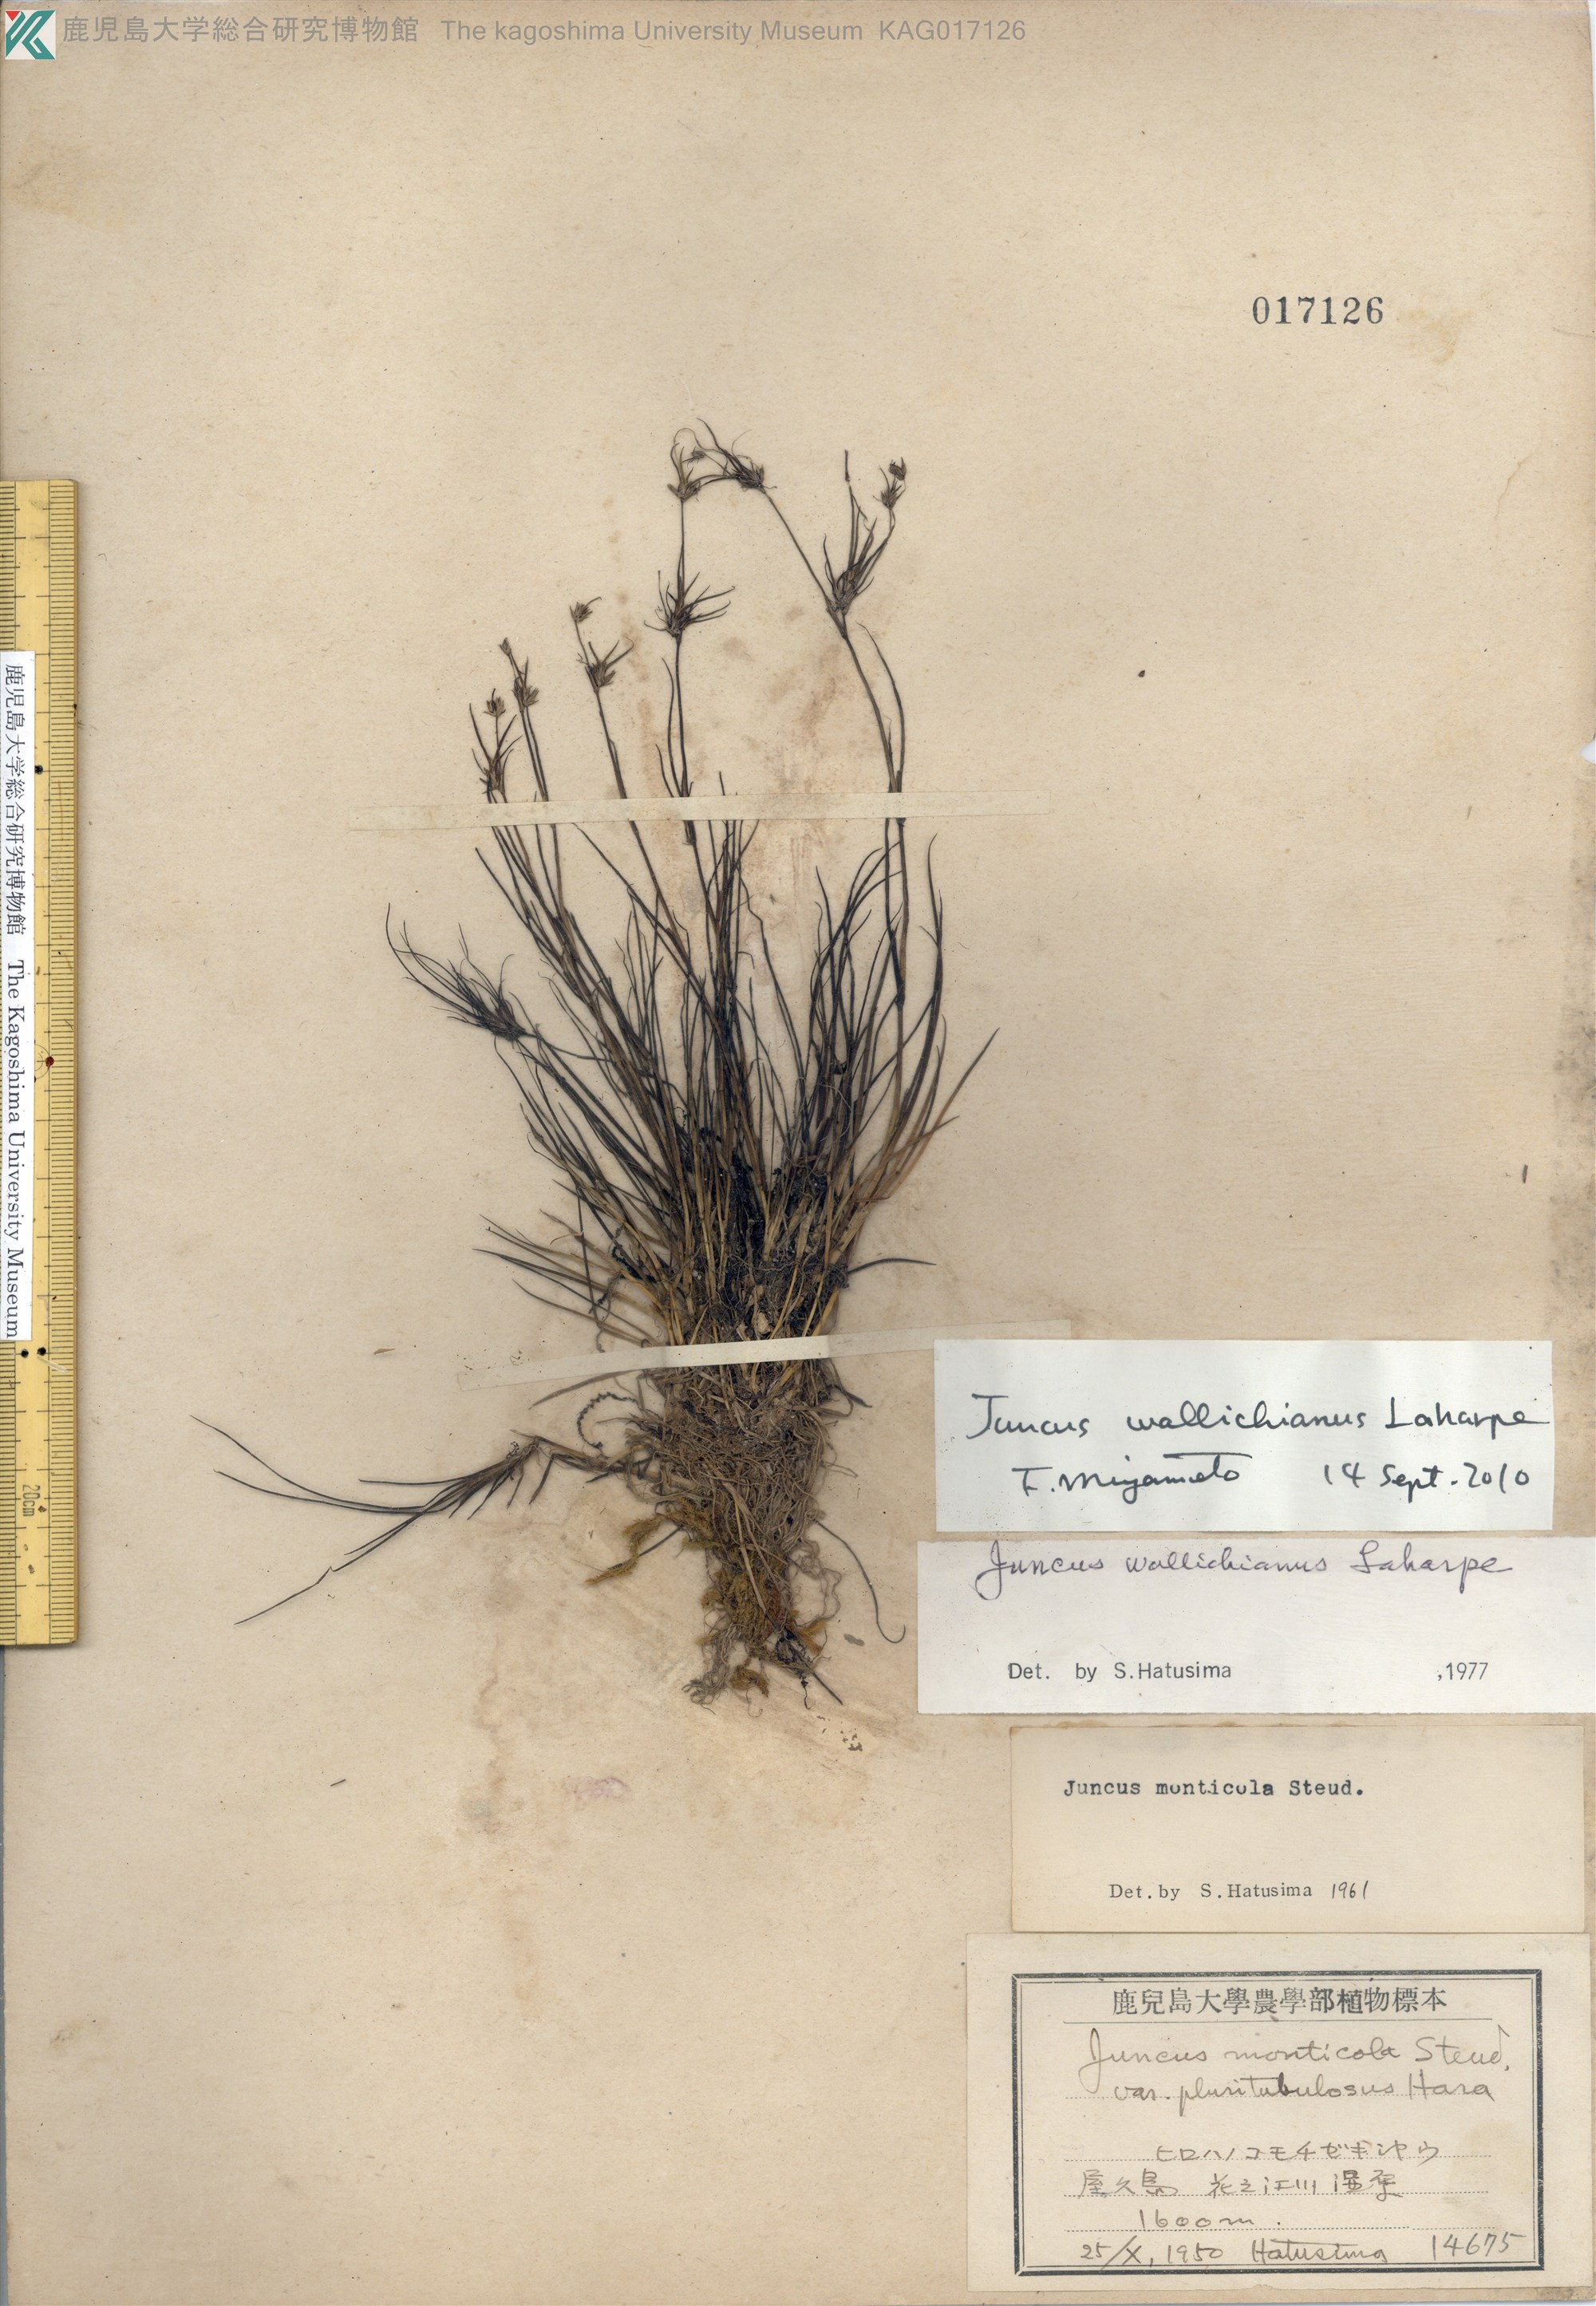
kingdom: Plantae
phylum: Tracheophyta
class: Liliopsida
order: Poales
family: Juncaceae
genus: Juncus
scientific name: Juncus wallichianus
